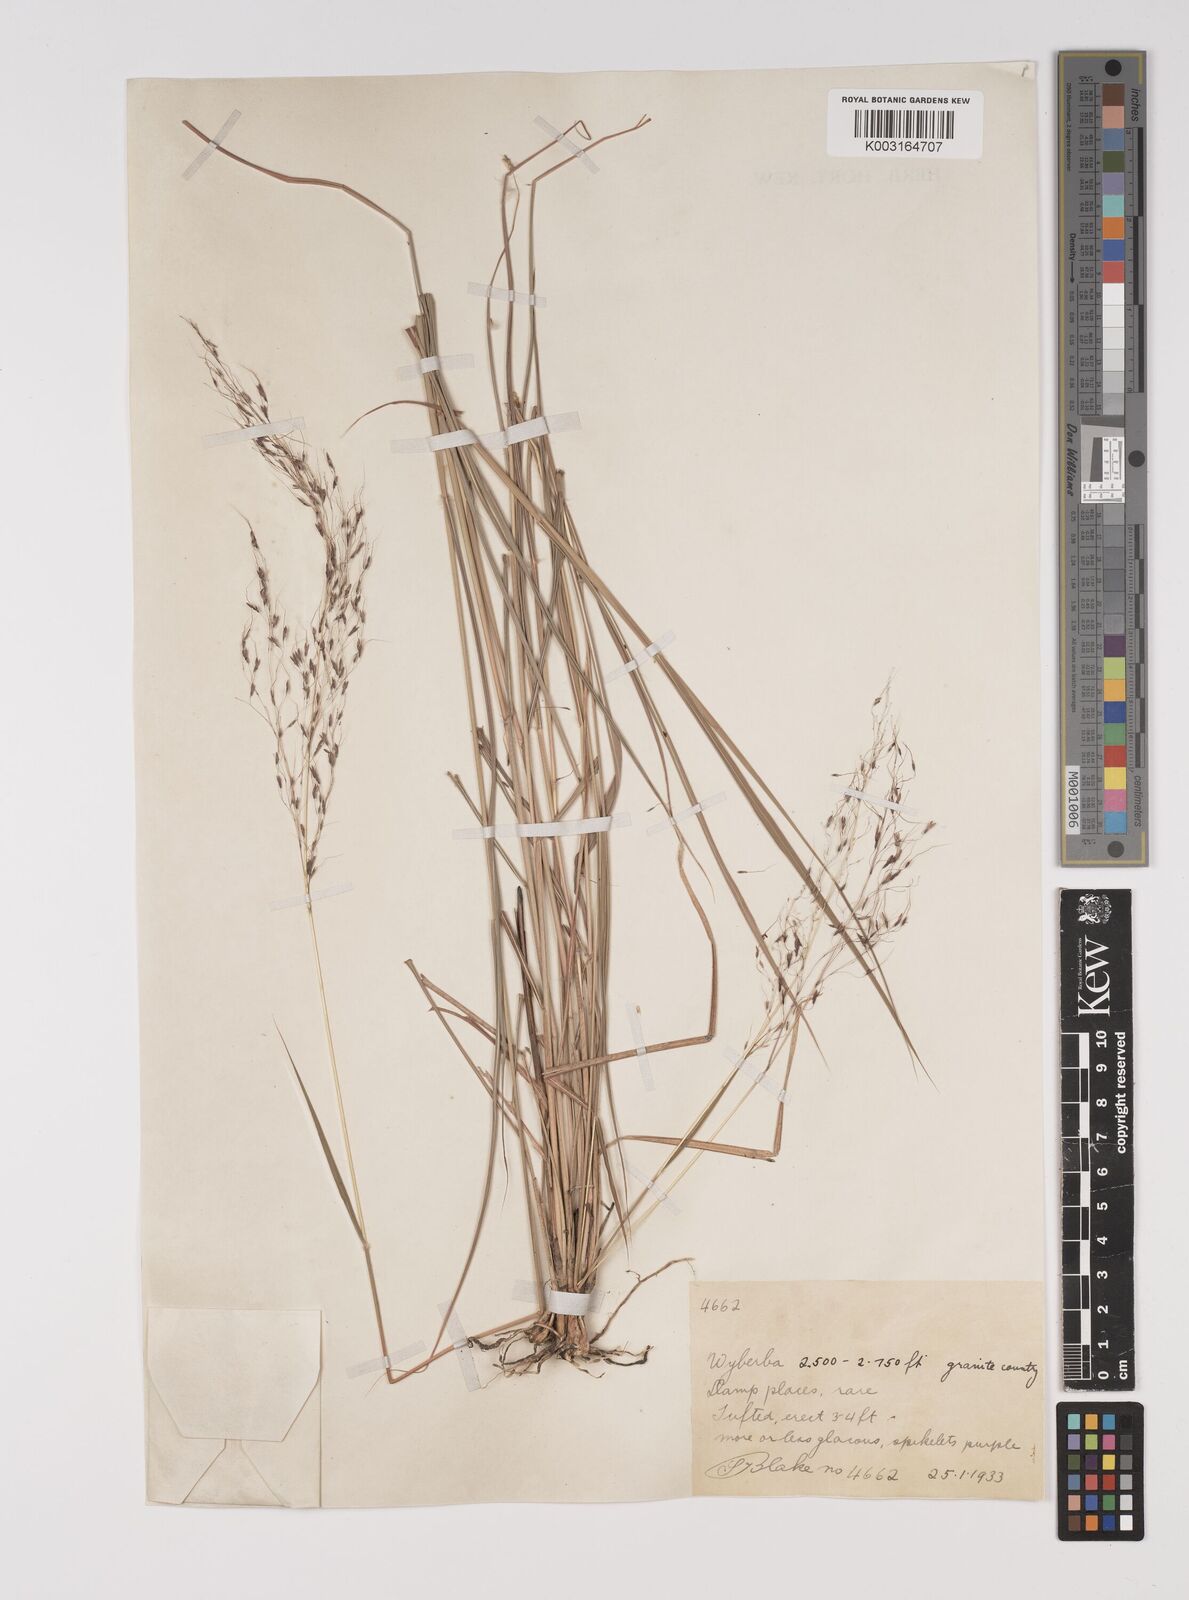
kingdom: Plantae
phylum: Tracheophyta
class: Liliopsida
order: Poales
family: Poaceae
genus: Capillipedium
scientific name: Capillipedium parviflorum
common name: Golden-beard
